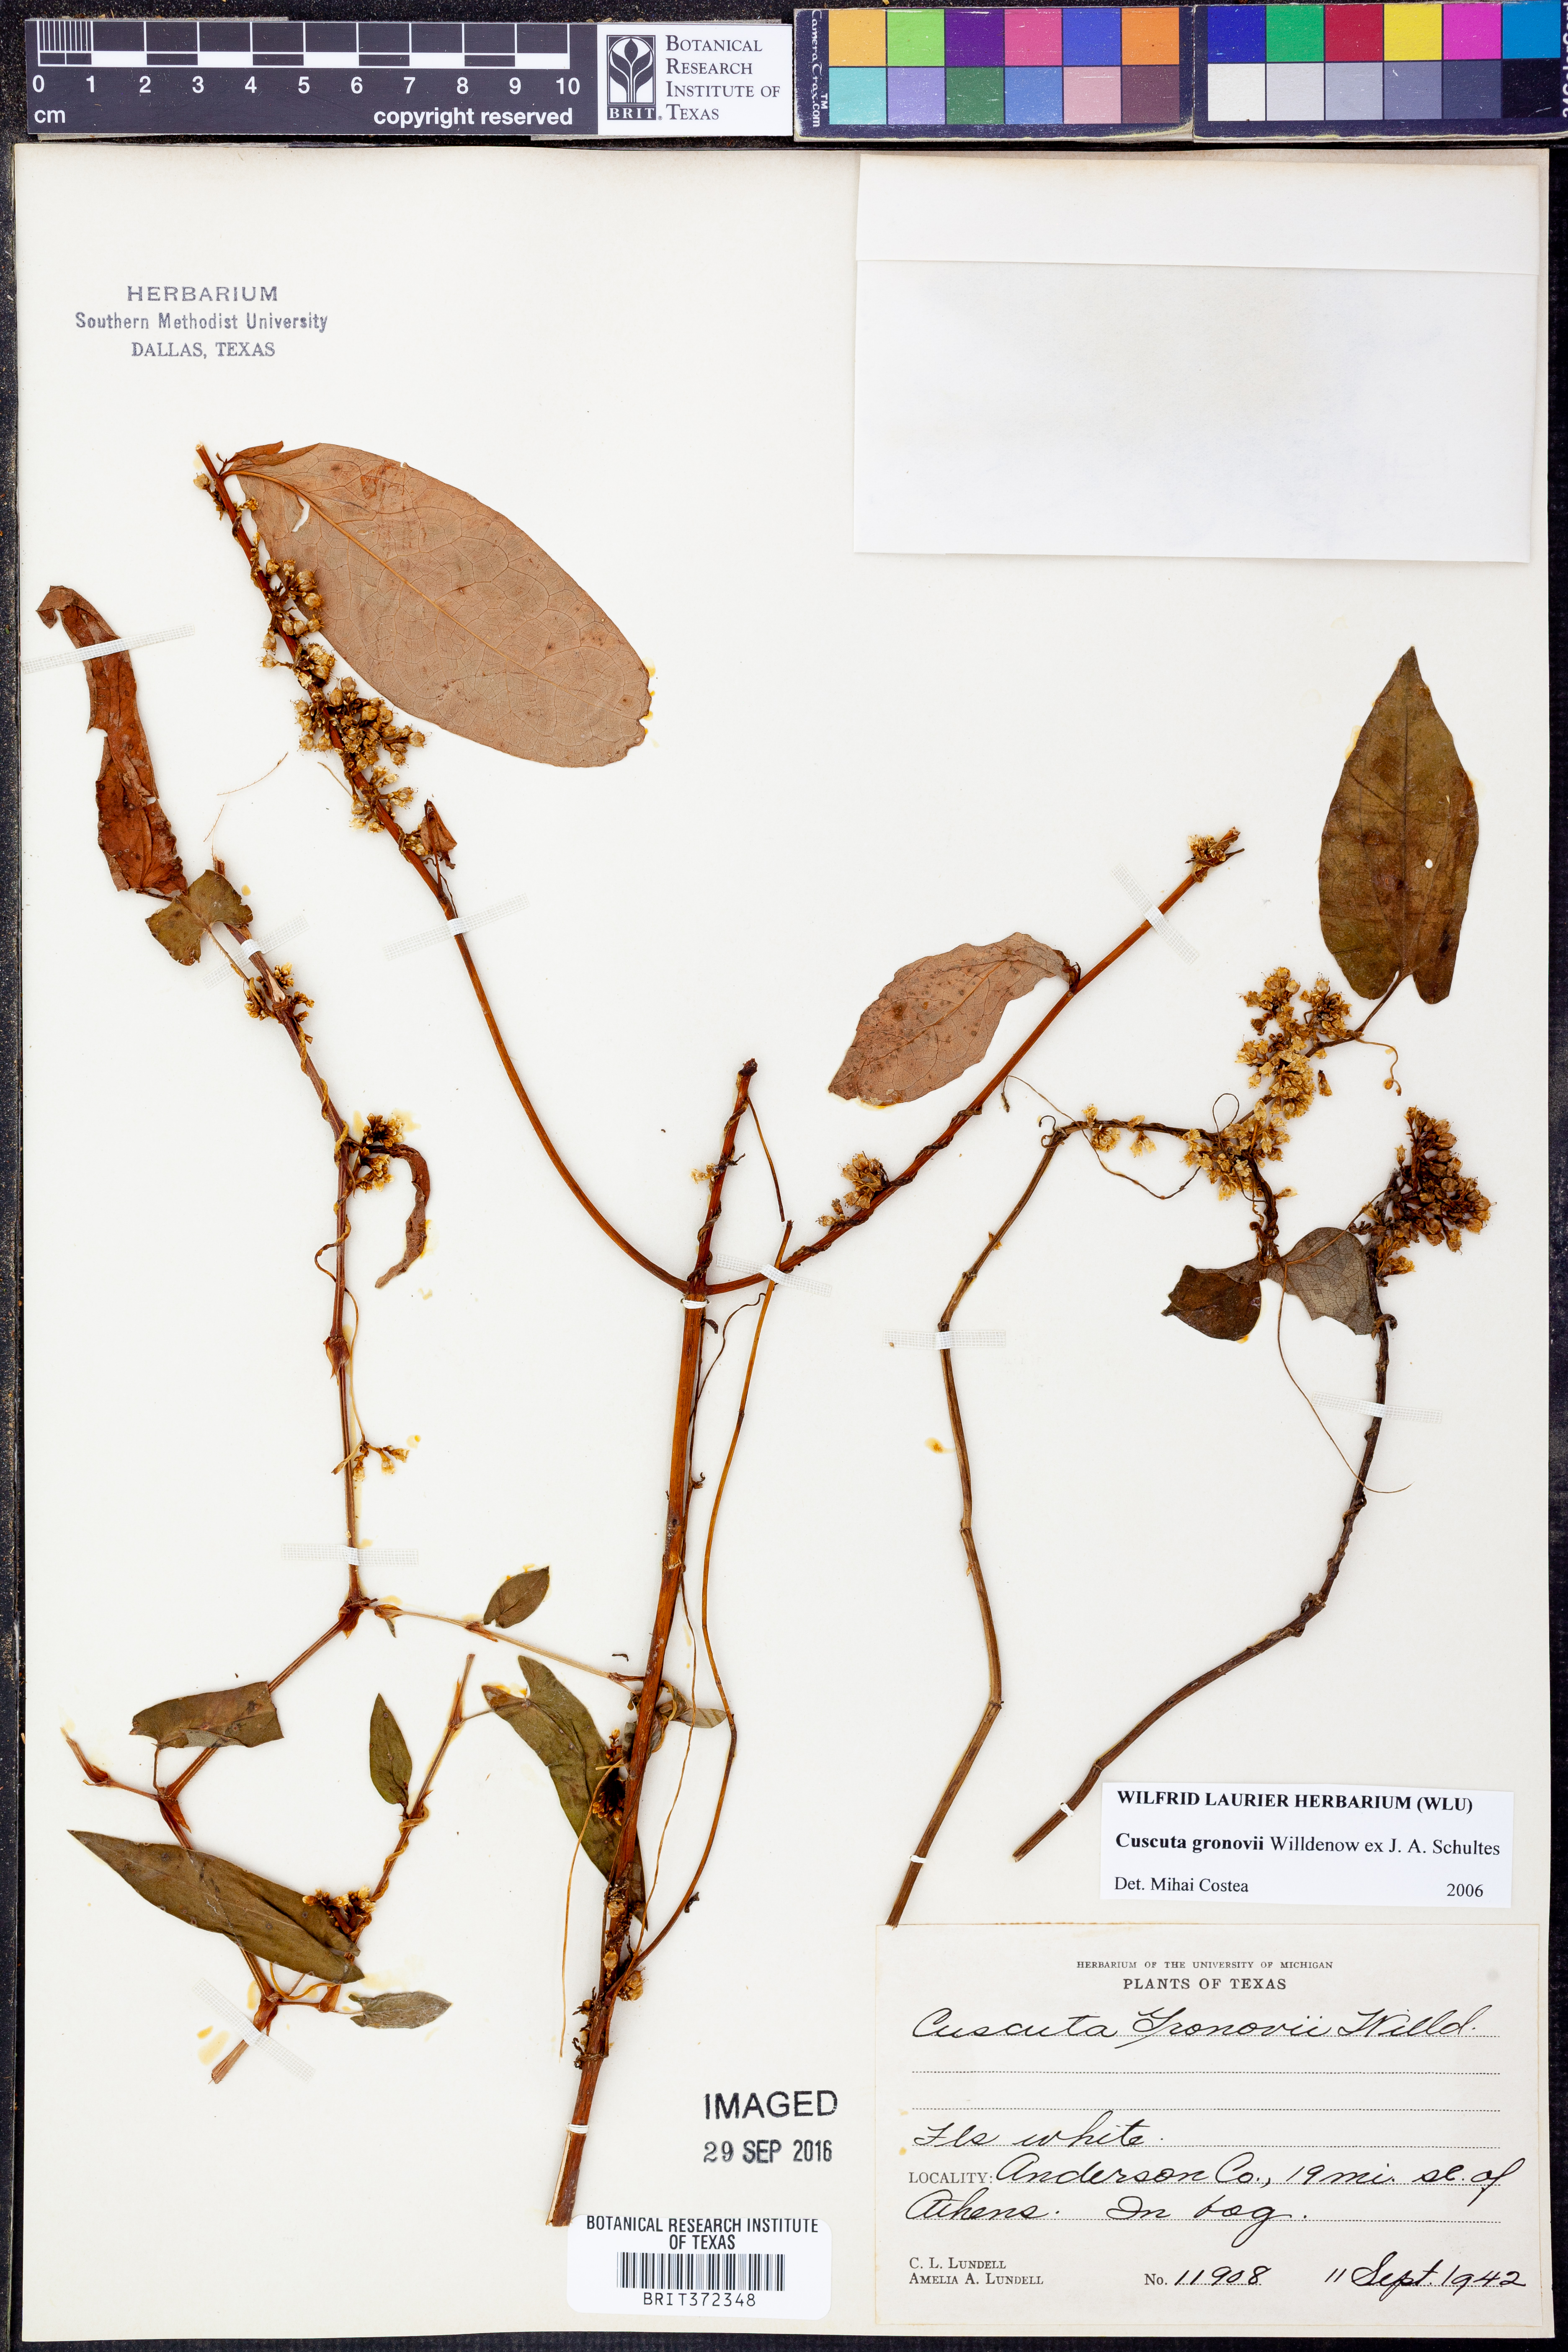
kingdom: Plantae
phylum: Tracheophyta
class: Magnoliopsida
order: Solanales
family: Convolvulaceae
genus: Cuscuta
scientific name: Cuscuta gronovii
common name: Common dodder
